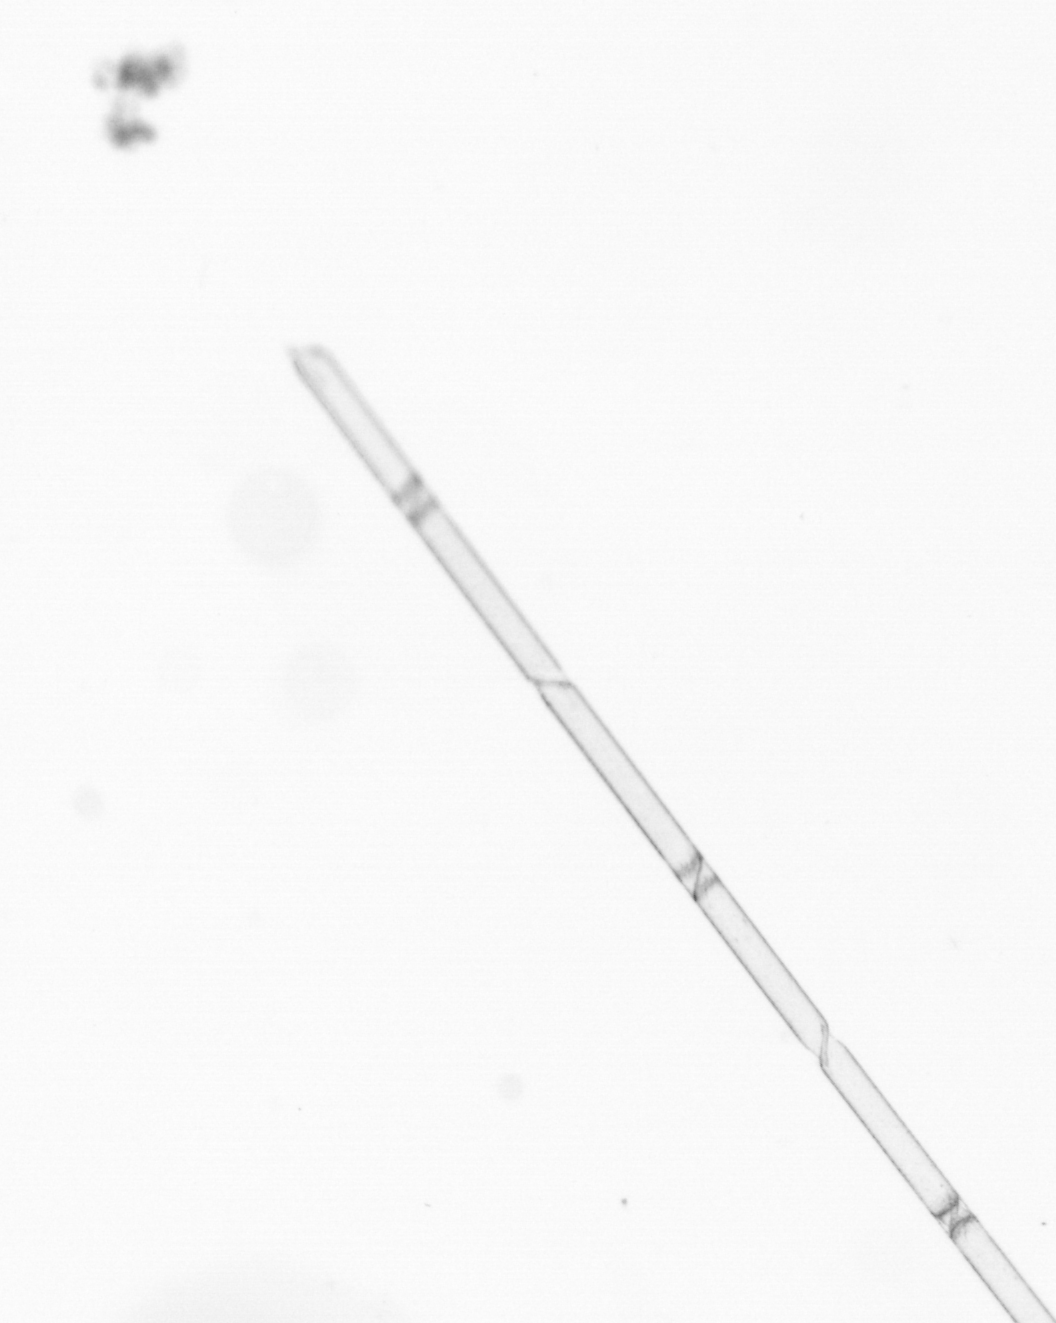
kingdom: Chromista
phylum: Ochrophyta
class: Bacillariophyceae
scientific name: Bacillariophyceae
